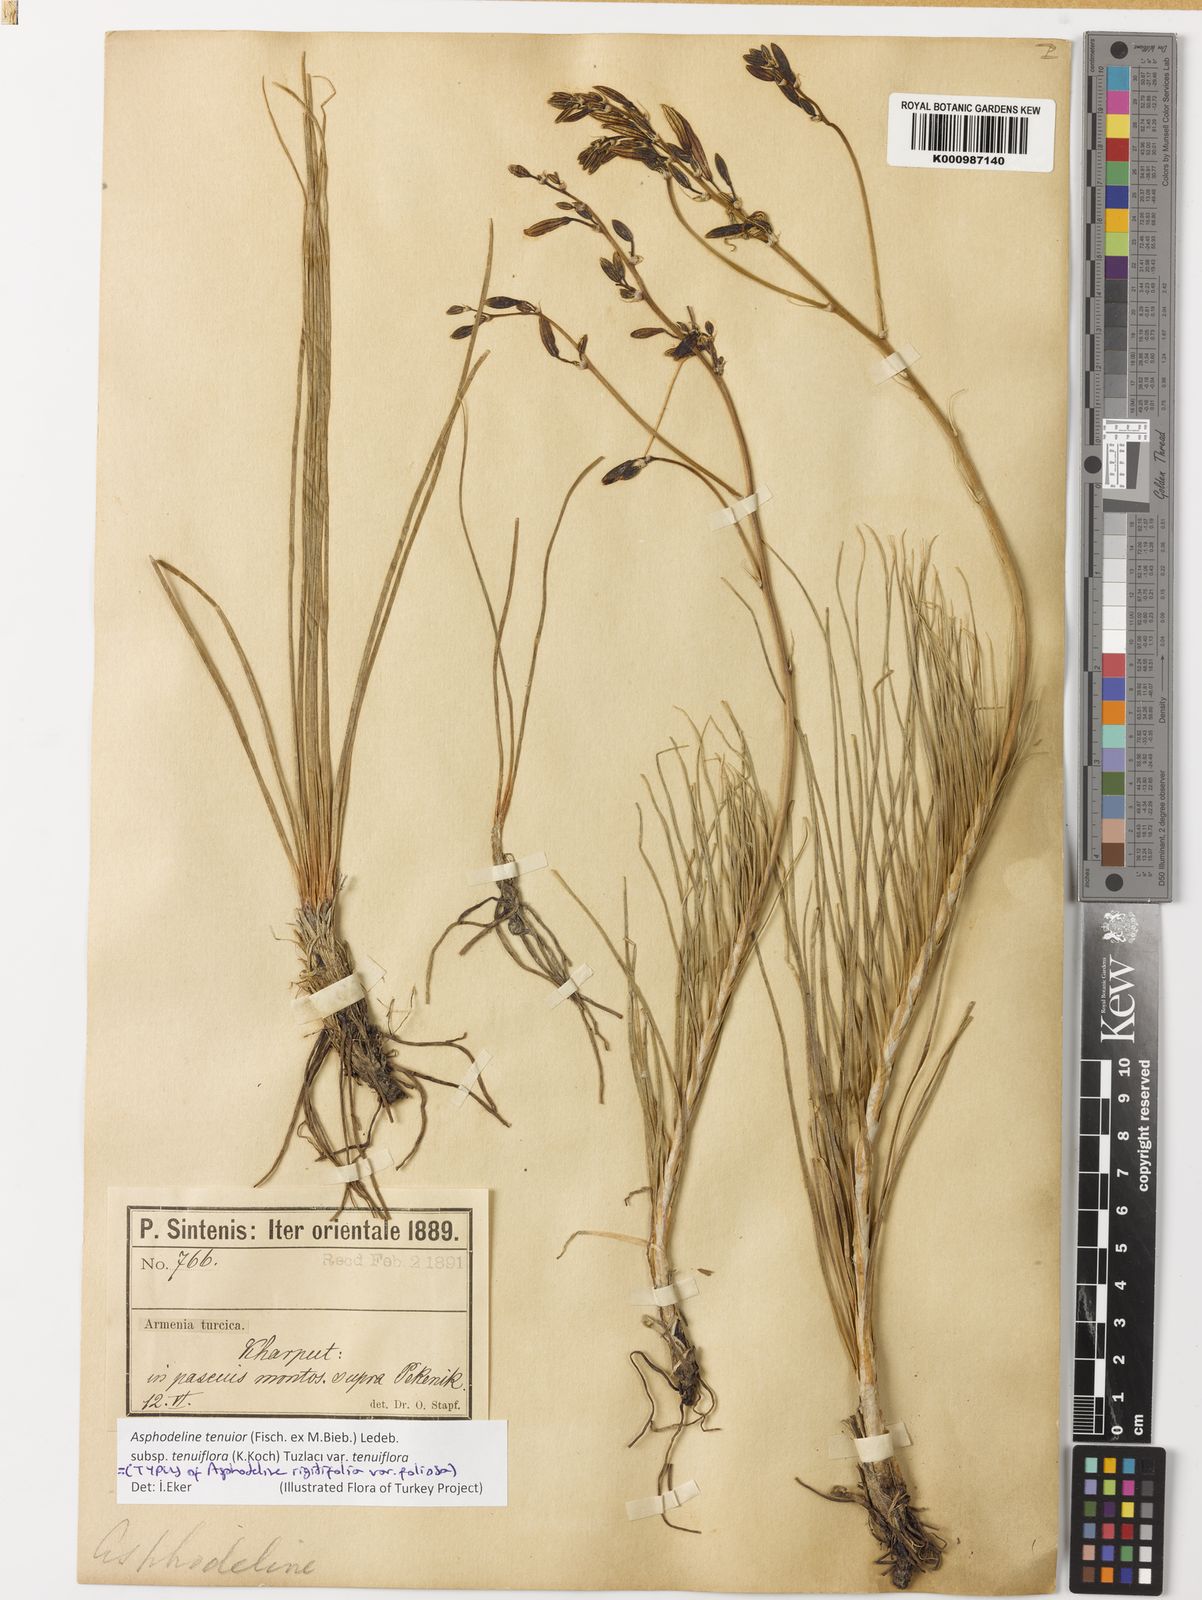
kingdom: Plantae
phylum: Tracheophyta
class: Liliopsida
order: Asparagales
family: Asphodelaceae
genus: Asphodeline
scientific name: Asphodeline tenuior
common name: Thin asphodeline
